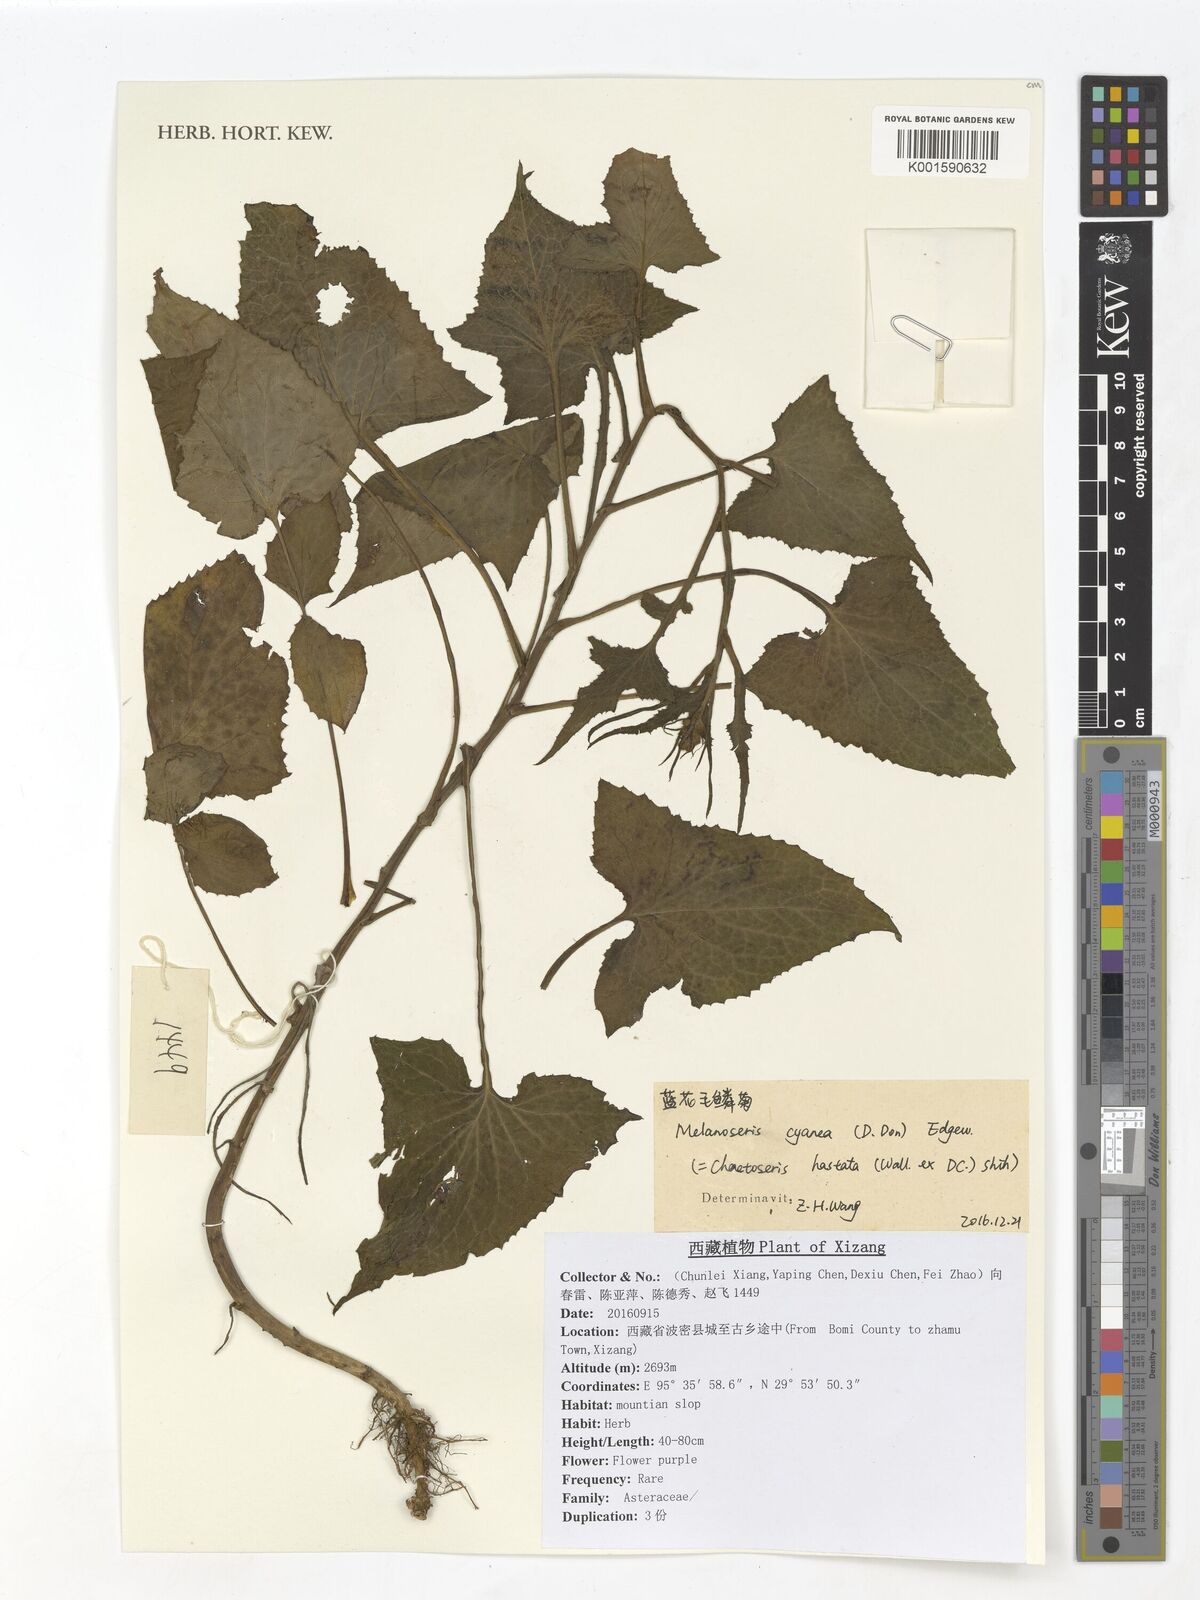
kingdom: Plantae
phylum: Tracheophyta
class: Magnoliopsida
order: Asterales
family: Asteraceae
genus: Melanoseris
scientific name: Melanoseris cyanea
